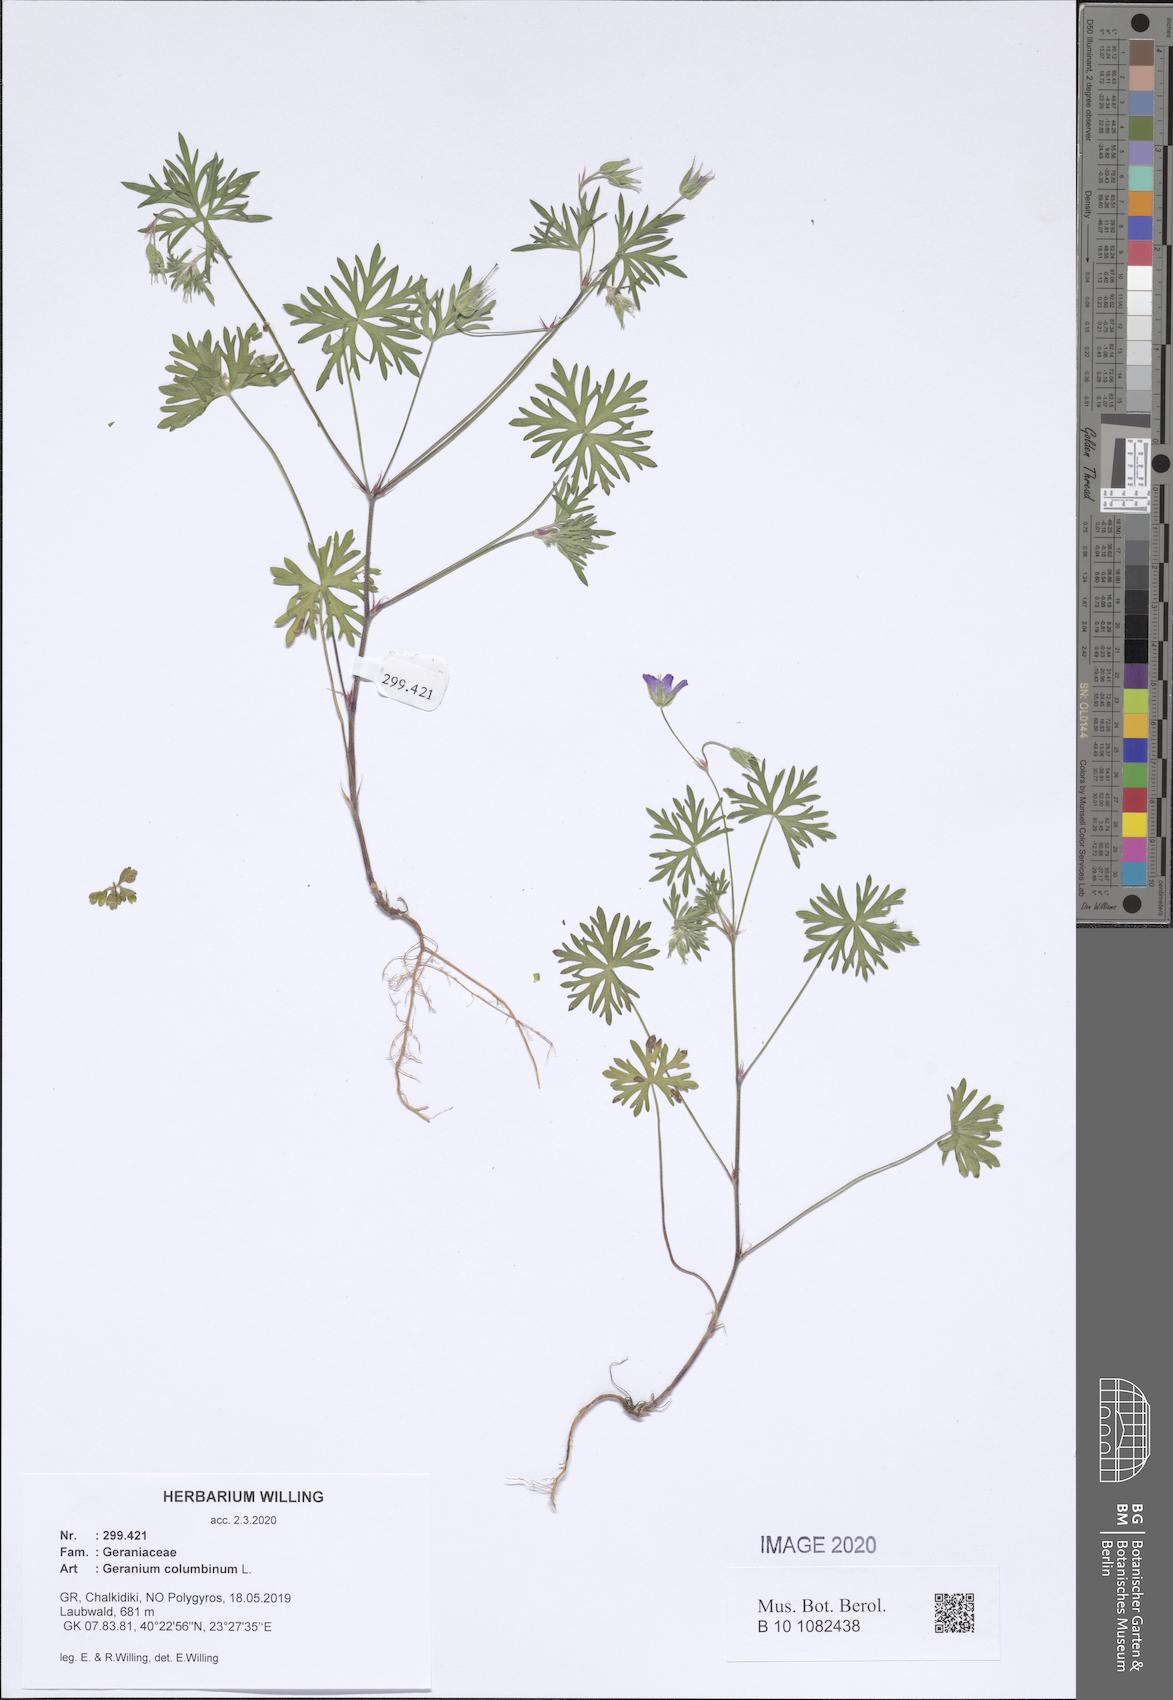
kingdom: Plantae
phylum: Tracheophyta
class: Magnoliopsida
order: Geraniales
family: Geraniaceae
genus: Geranium
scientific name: Geranium columbinum
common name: Long-stalked crane's-bill
